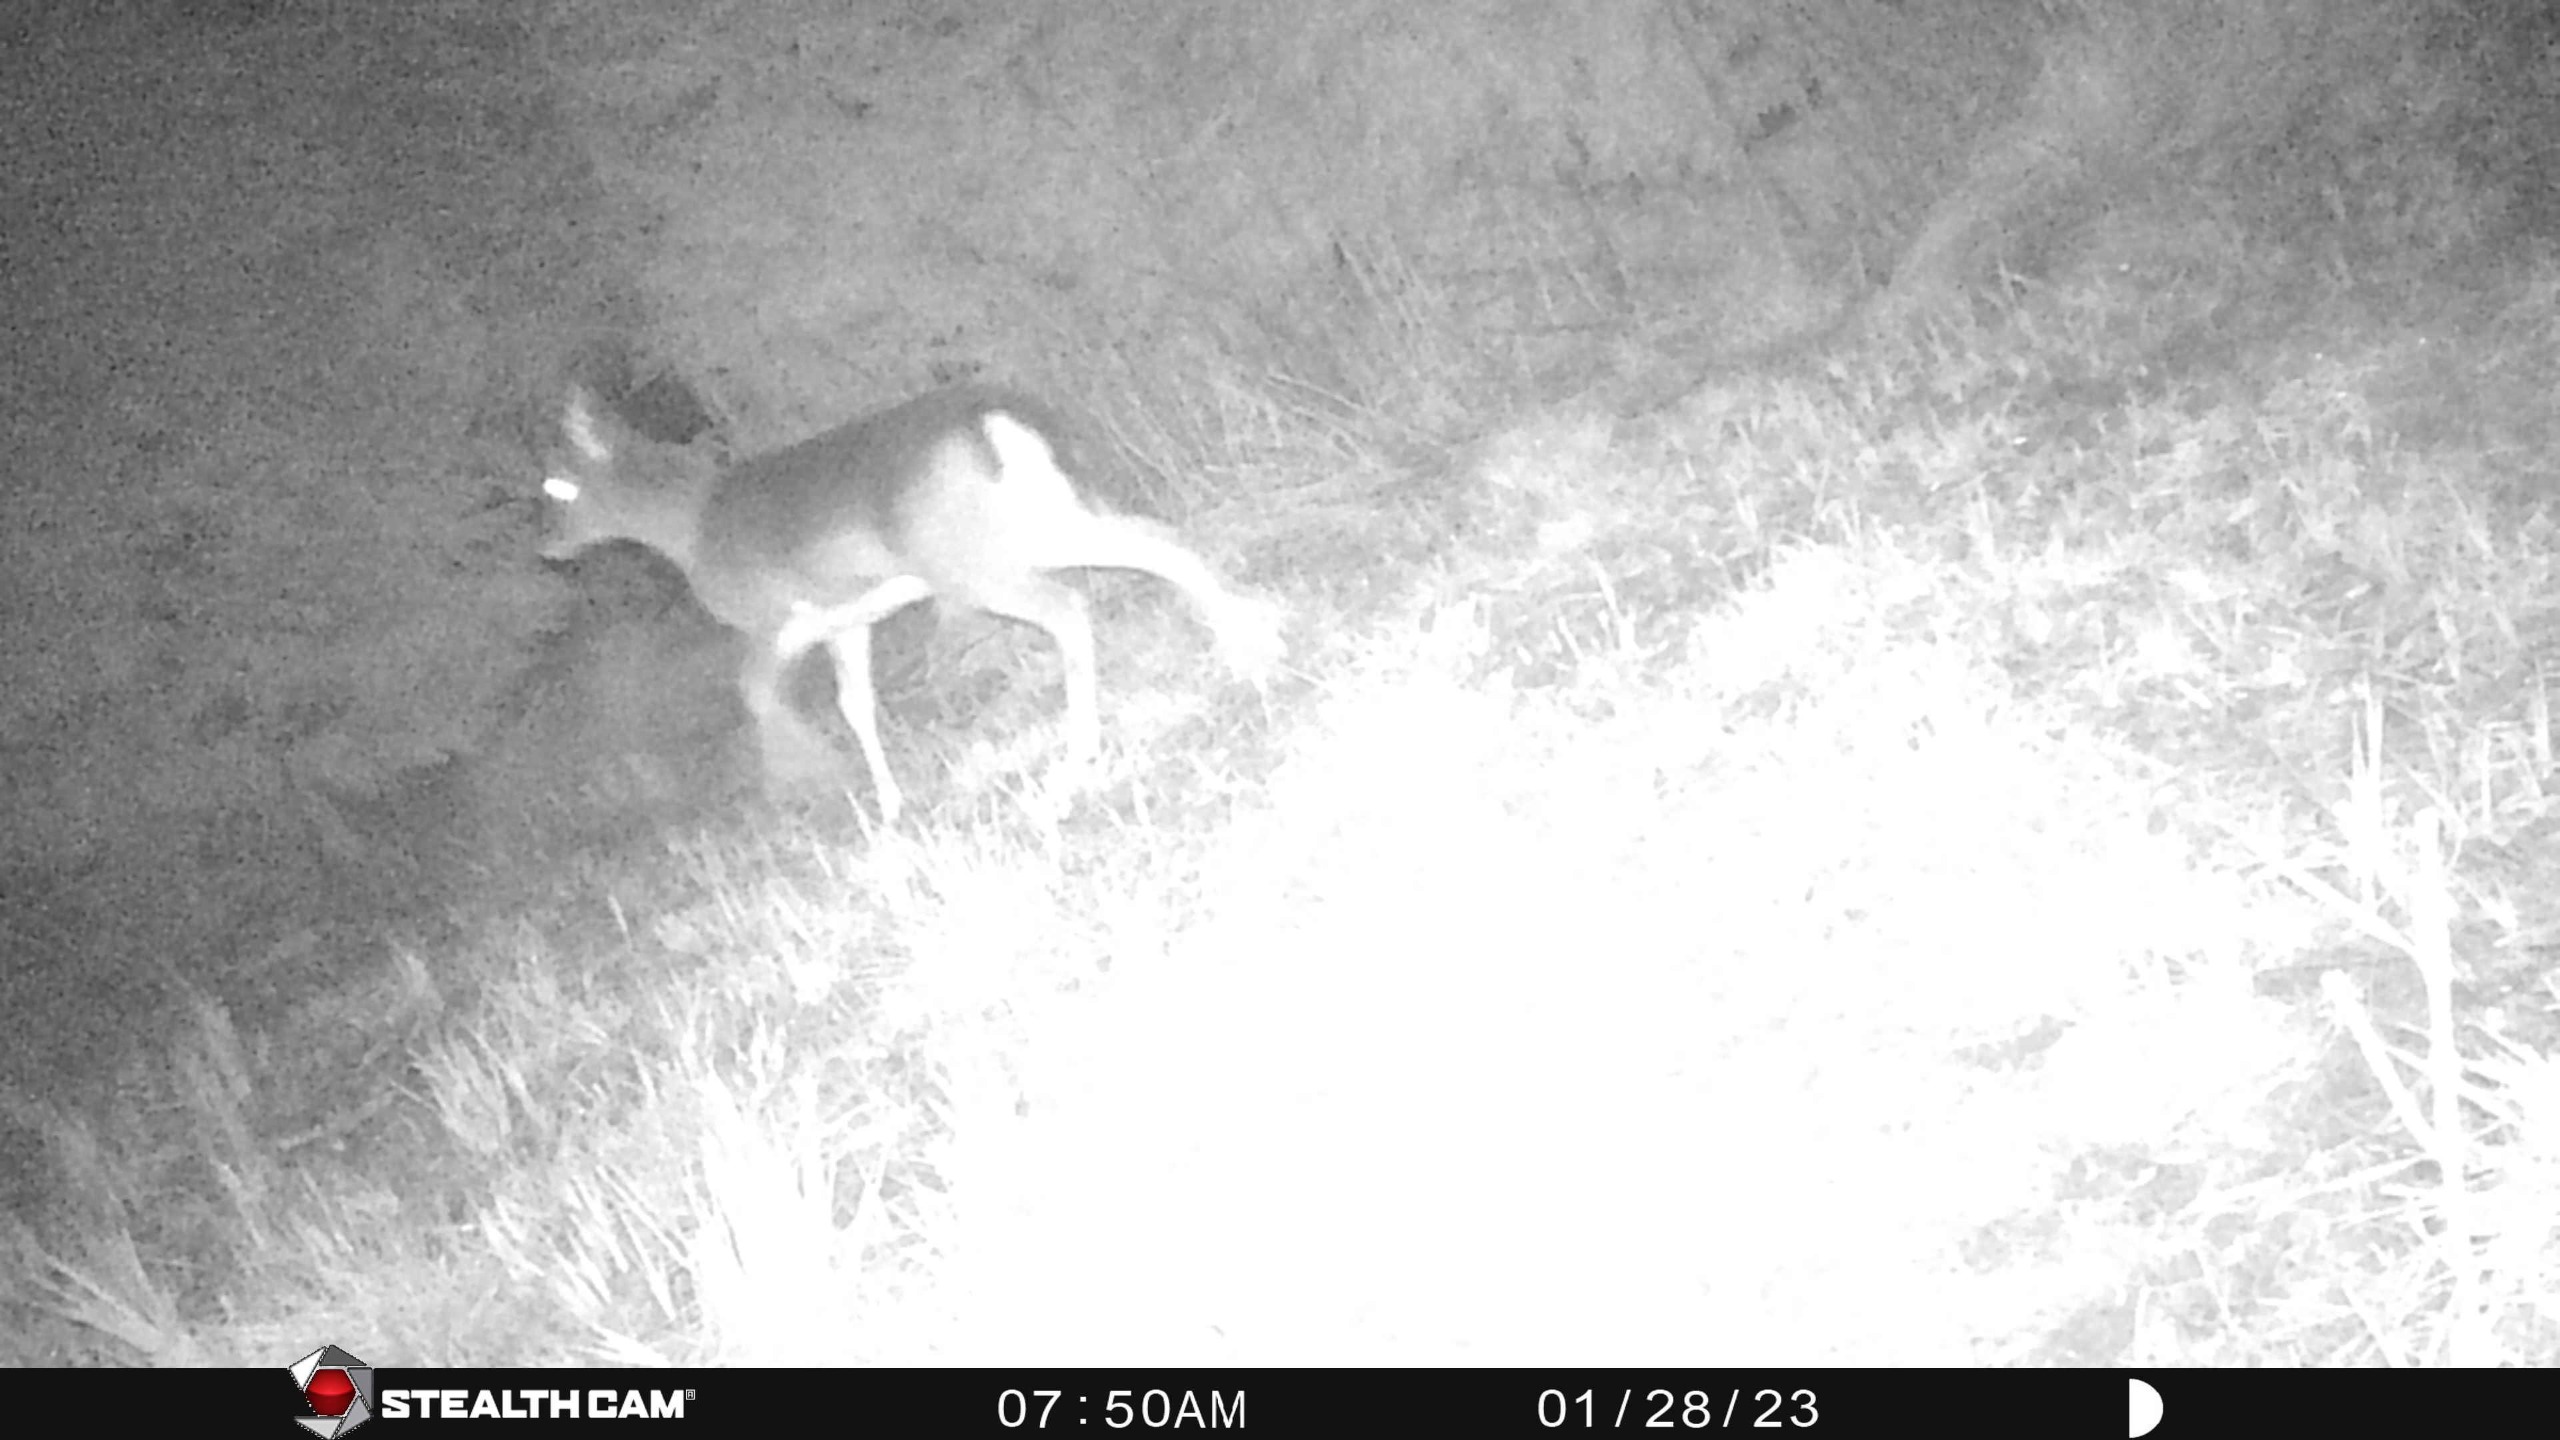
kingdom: Animalia
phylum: Chordata
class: Mammalia
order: Artiodactyla
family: Cervidae
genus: Dama
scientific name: Dama dama
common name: Dådyr
